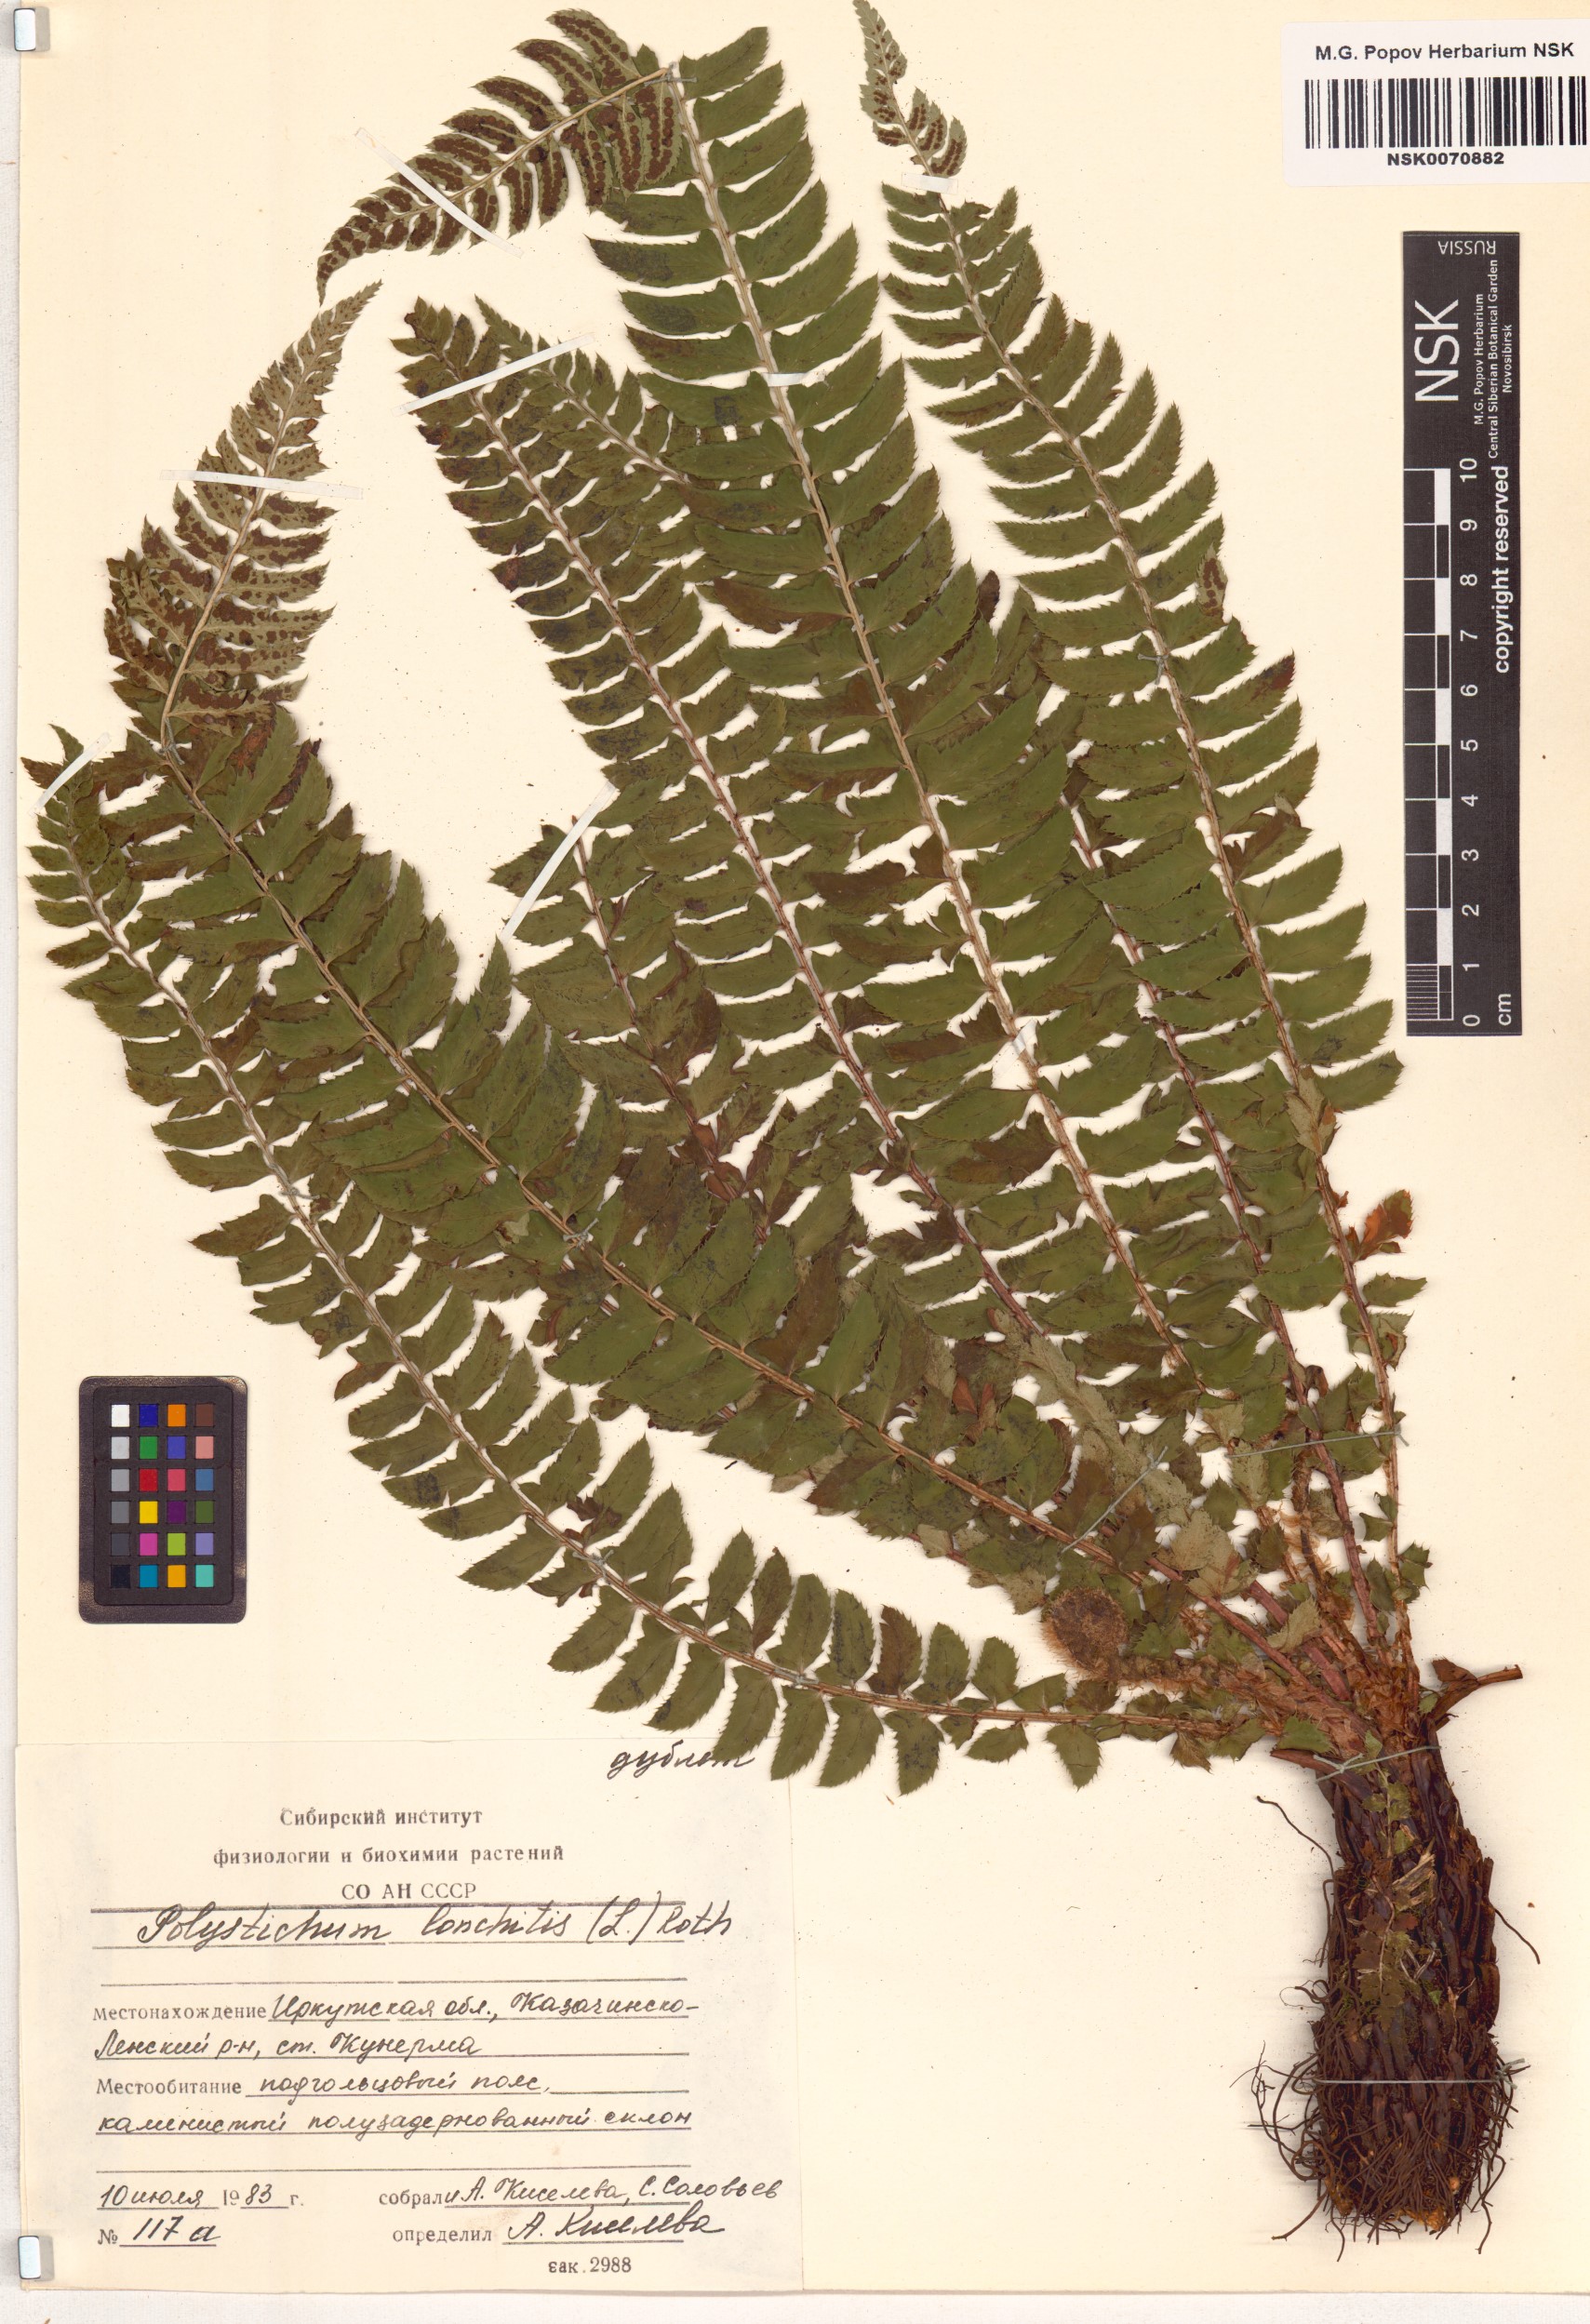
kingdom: Plantae
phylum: Tracheophyta
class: Polypodiopsida
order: Polypodiales
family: Dryopteridaceae
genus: Polystichum
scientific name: Polystichum lonchitis
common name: Holly fern
